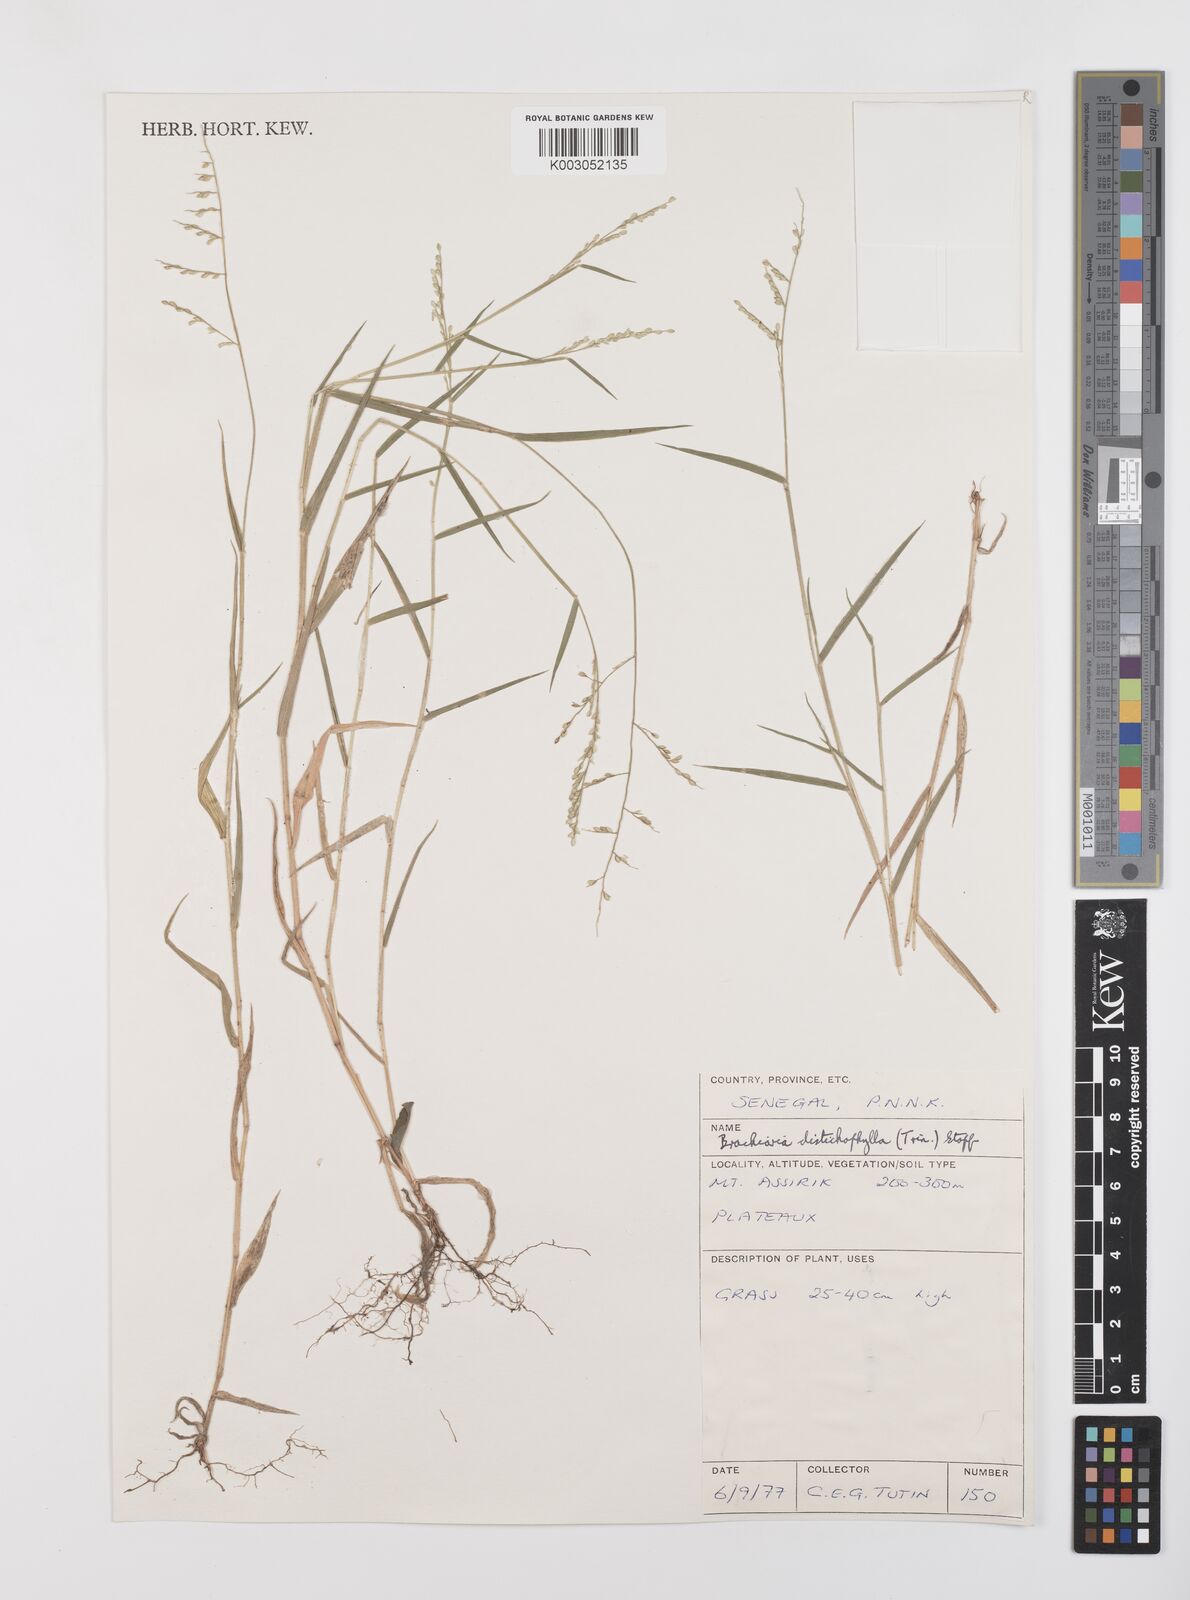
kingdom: Plantae
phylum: Tracheophyta
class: Liliopsida
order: Poales
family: Poaceae
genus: Urochloa
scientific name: Urochloa villosa
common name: Hairy signalgrass
